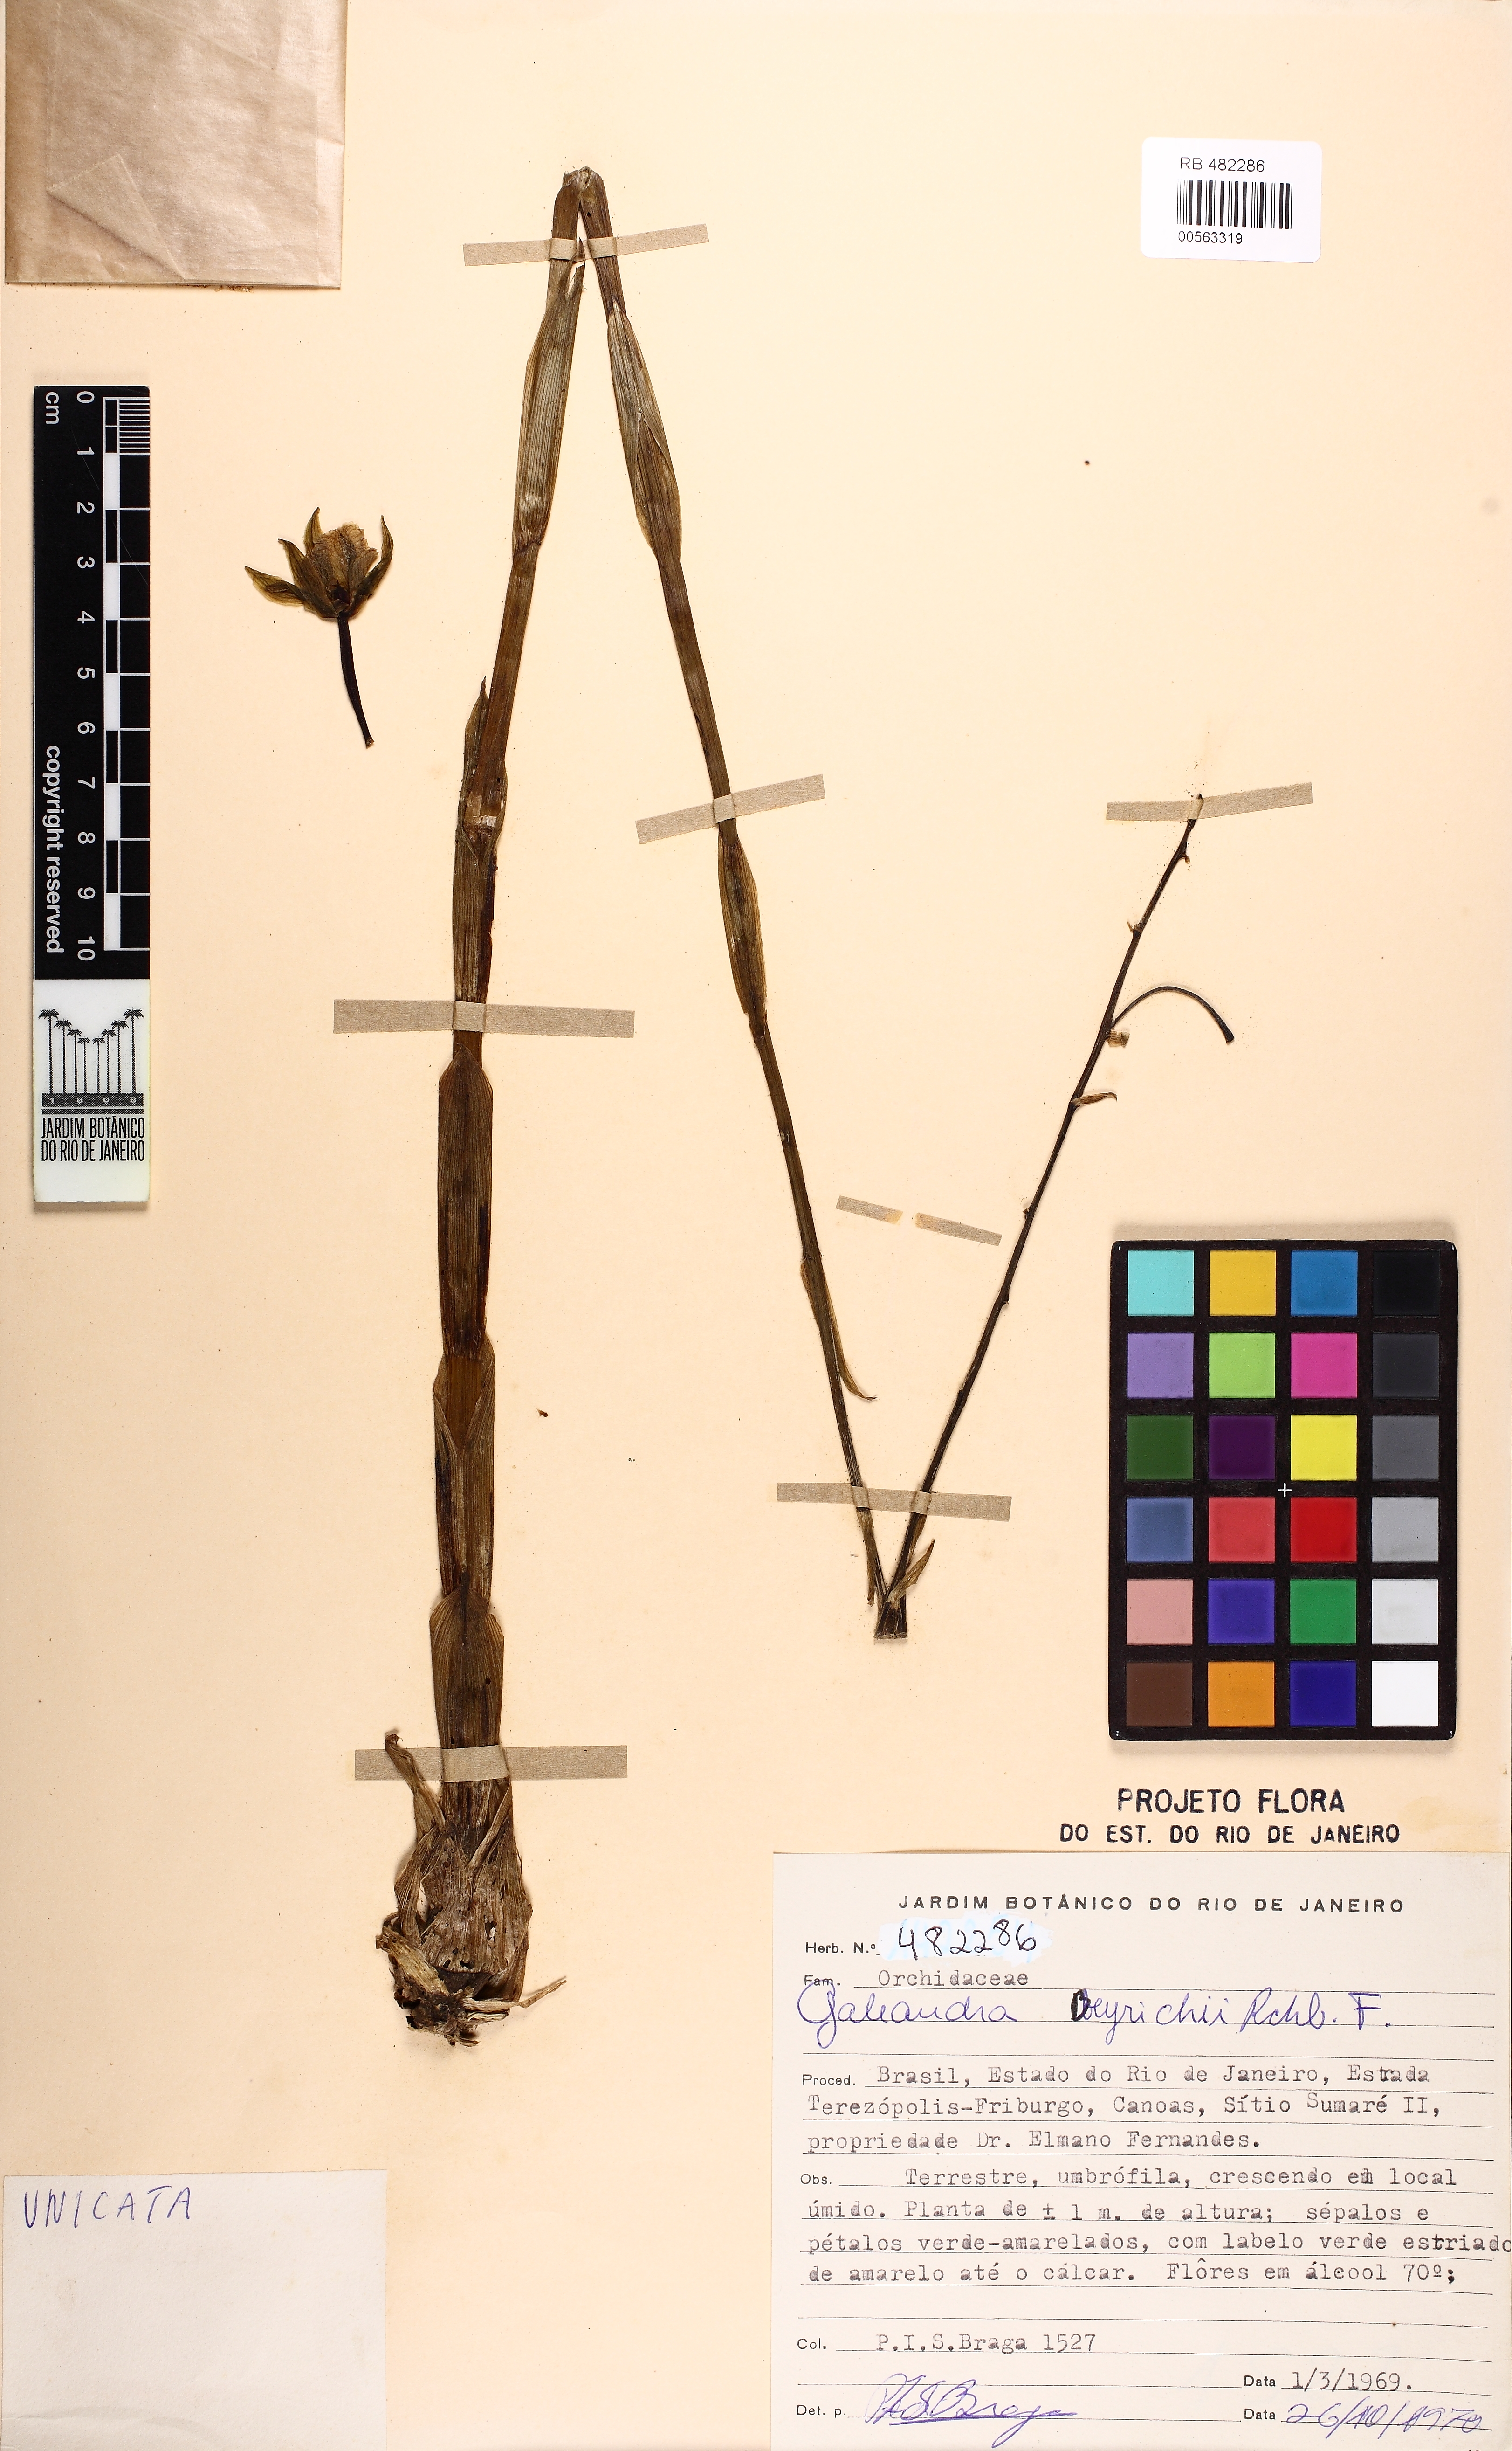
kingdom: Plantae
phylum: Tracheophyta
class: Liliopsida
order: Asparagales
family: Orchidaceae
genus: Galeandra
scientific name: Galeandra beyrichii
